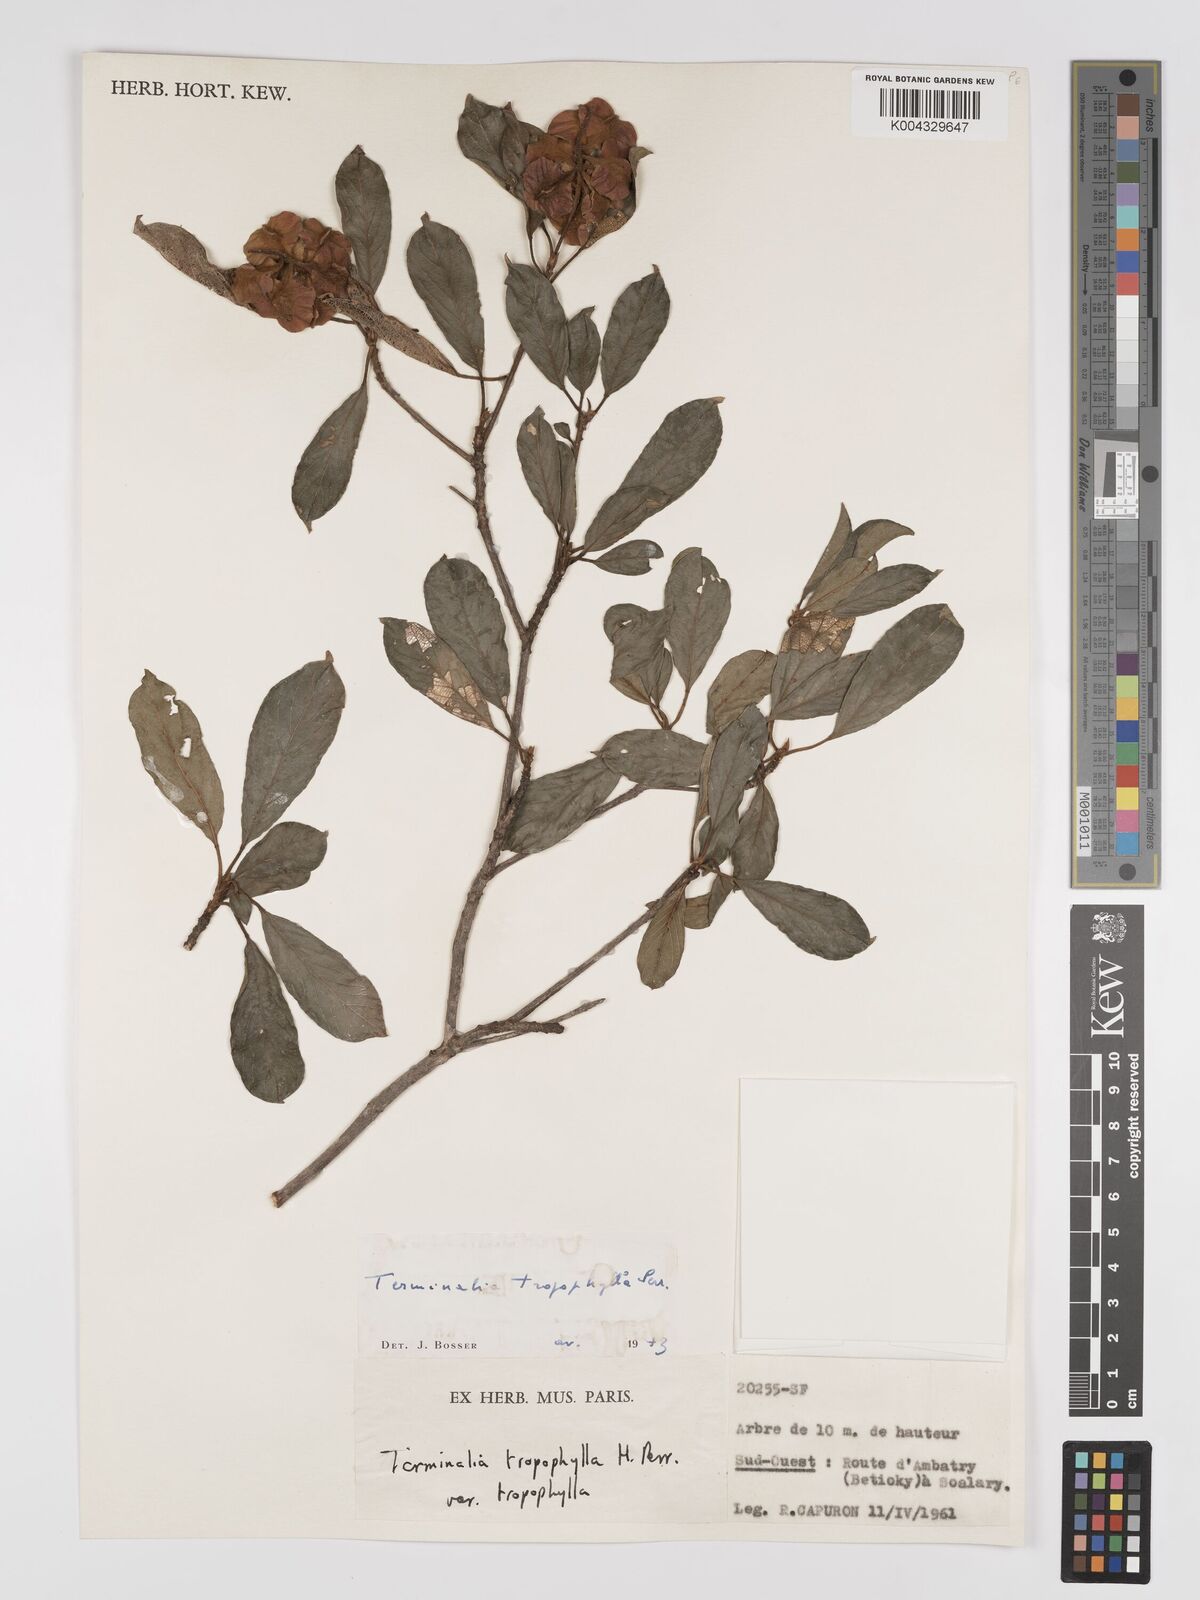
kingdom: Plantae
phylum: Tracheophyta
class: Magnoliopsida
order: Myrtales
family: Combretaceae
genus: Terminalia
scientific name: Terminalia tropophylla
